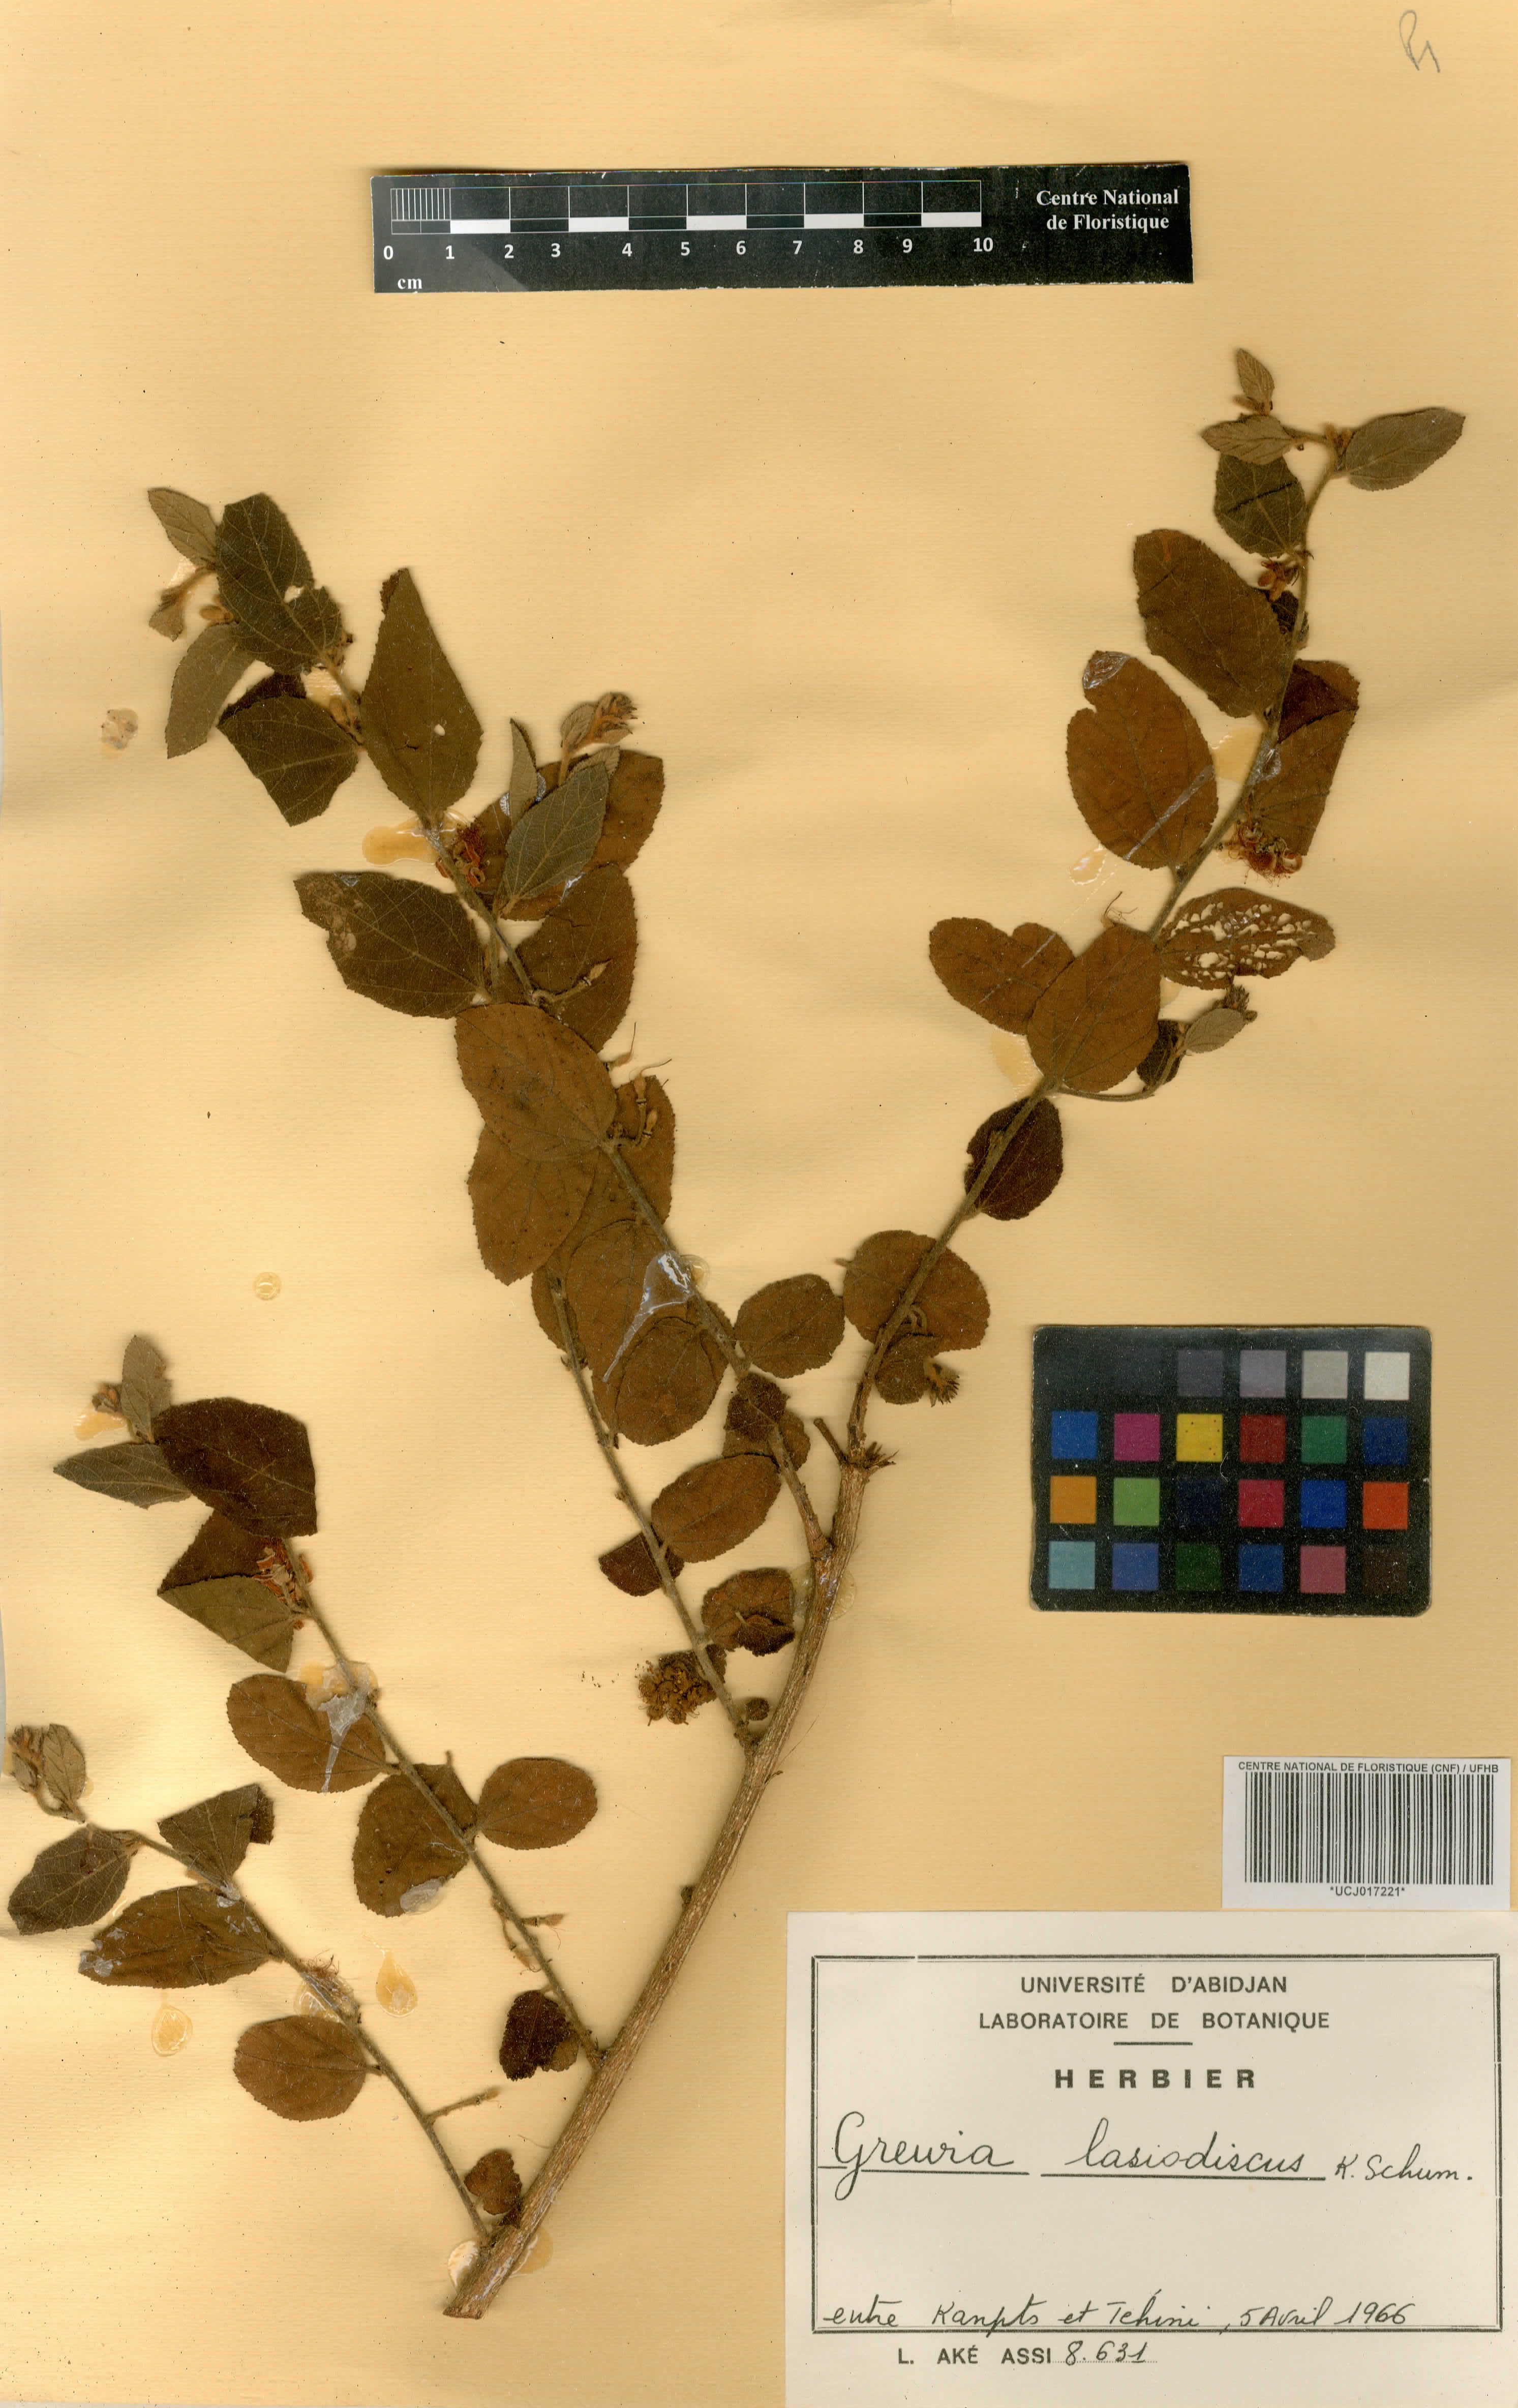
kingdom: Plantae
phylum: Tracheophyta
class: Magnoliopsida
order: Malvales
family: Malvaceae
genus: Grewia
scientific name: Grewia lasiodiscus
